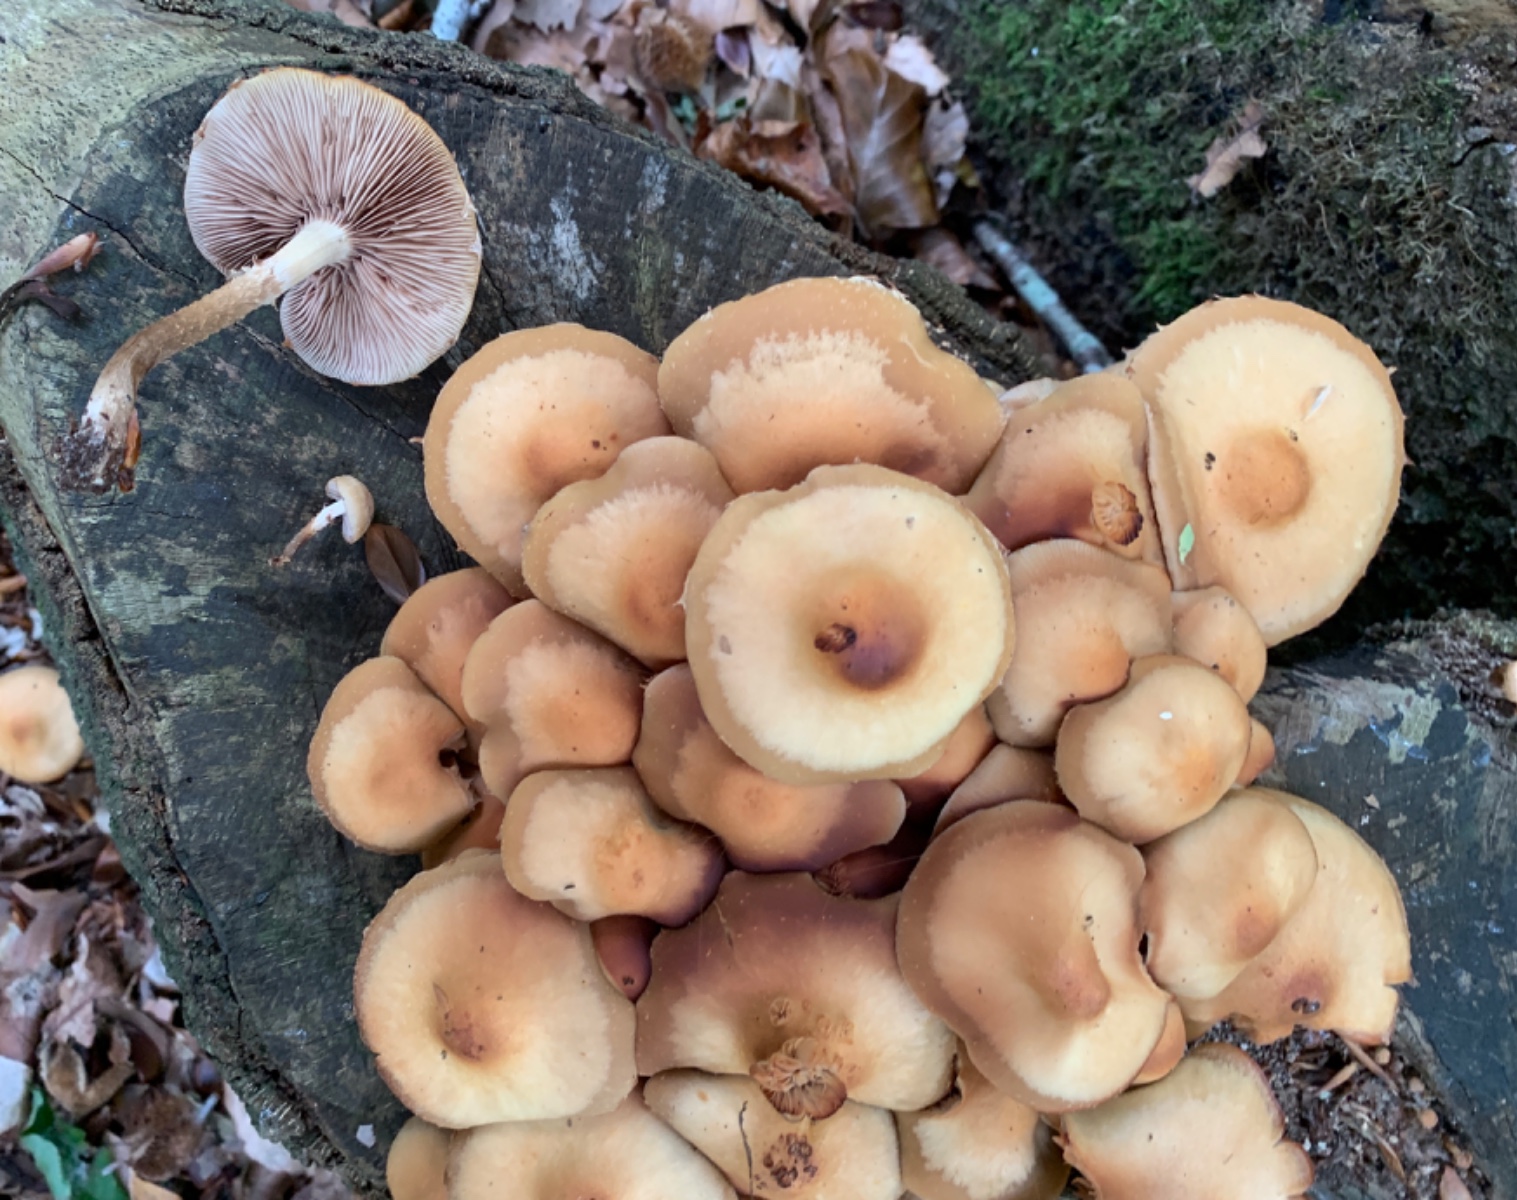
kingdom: Fungi
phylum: Basidiomycota
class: Agaricomycetes
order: Agaricales
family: Strophariaceae
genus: Kuehneromyces
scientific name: Kuehneromyces mutabilis
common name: foranderlig skælhat
